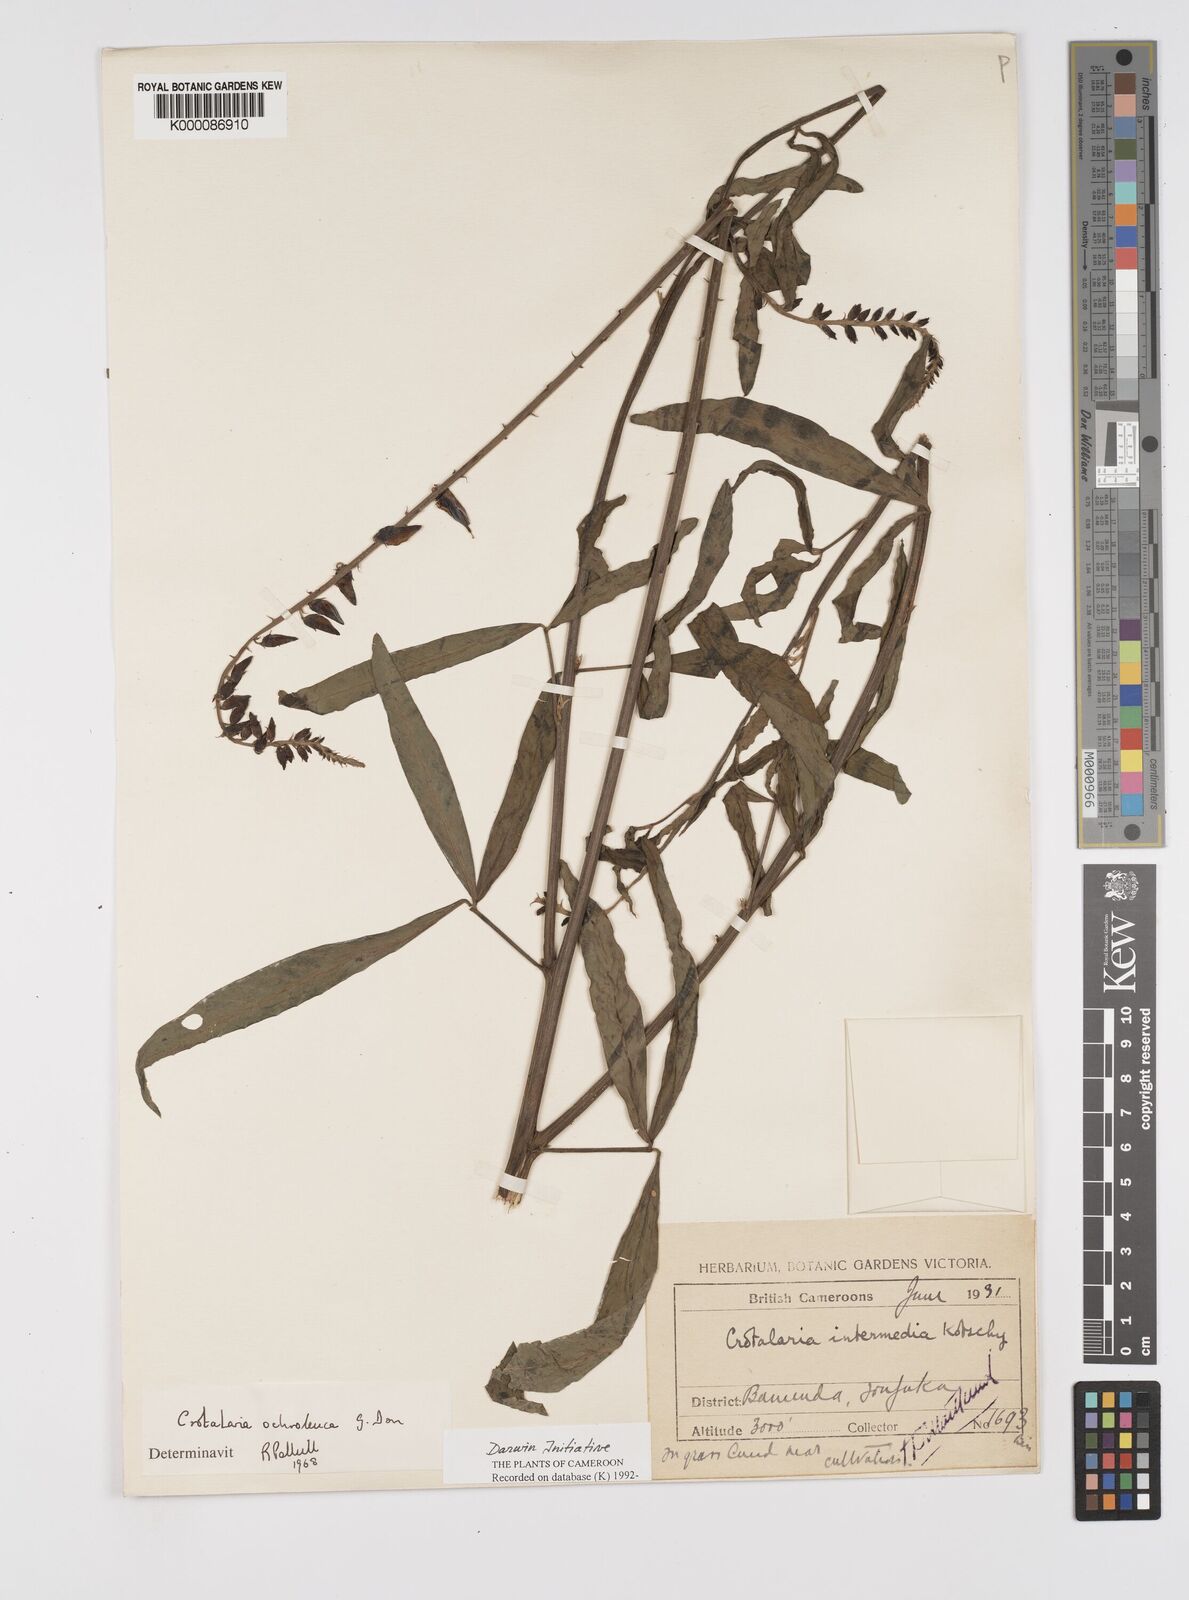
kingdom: Plantae
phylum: Tracheophyta
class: Magnoliopsida
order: Fabales
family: Fabaceae
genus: Crotalaria
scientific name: Crotalaria ochroleuca
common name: Slender leaf rattlebox
